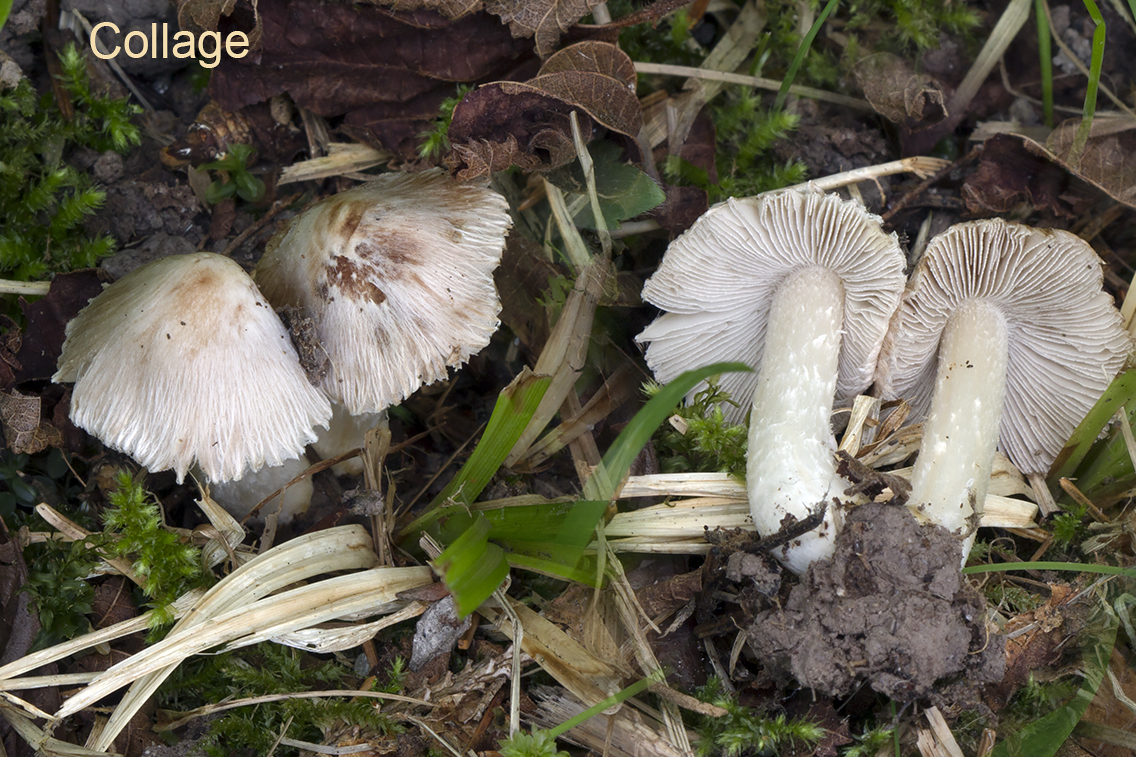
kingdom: Fungi
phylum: Basidiomycota
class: Agaricomycetes
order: Agaricales
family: Inocybaceae
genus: Pseudosperma
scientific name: Pseudosperma obsoletum
